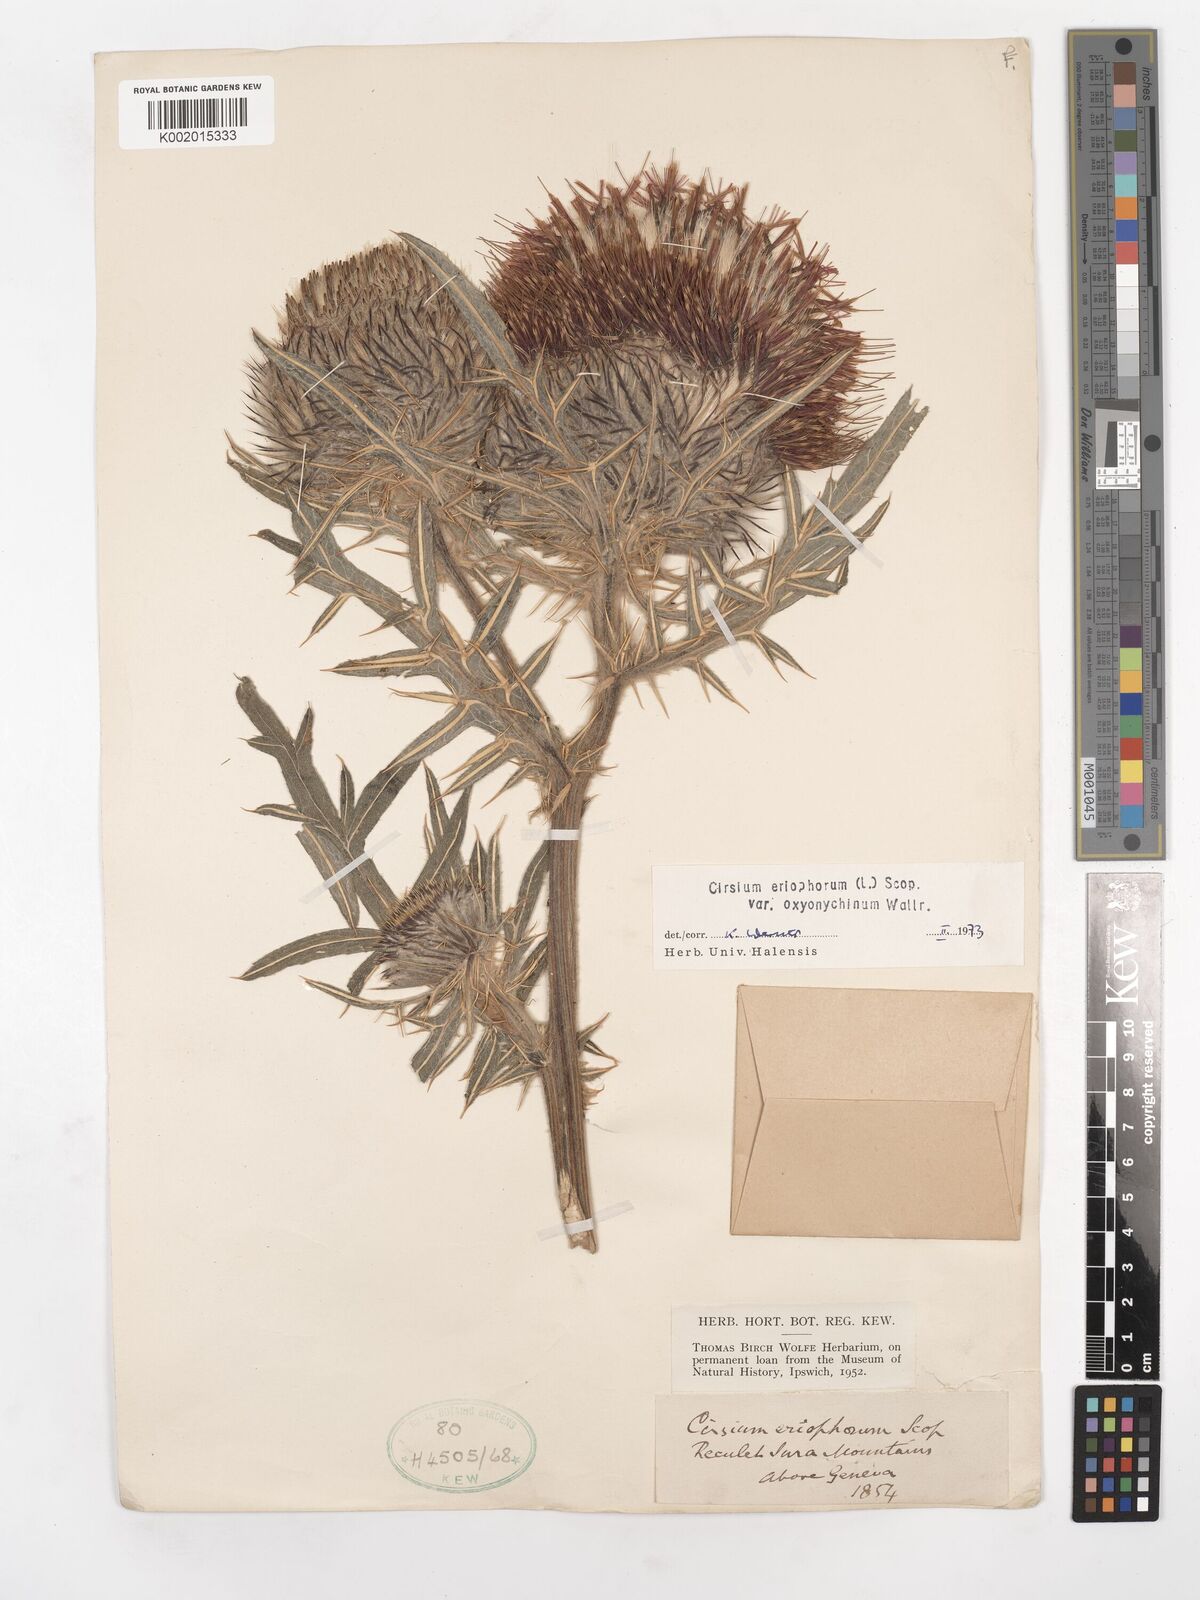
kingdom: Plantae
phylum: Tracheophyta
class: Magnoliopsida
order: Asterales
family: Asteraceae
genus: Lophiolepis
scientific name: Lophiolepis eriophora
